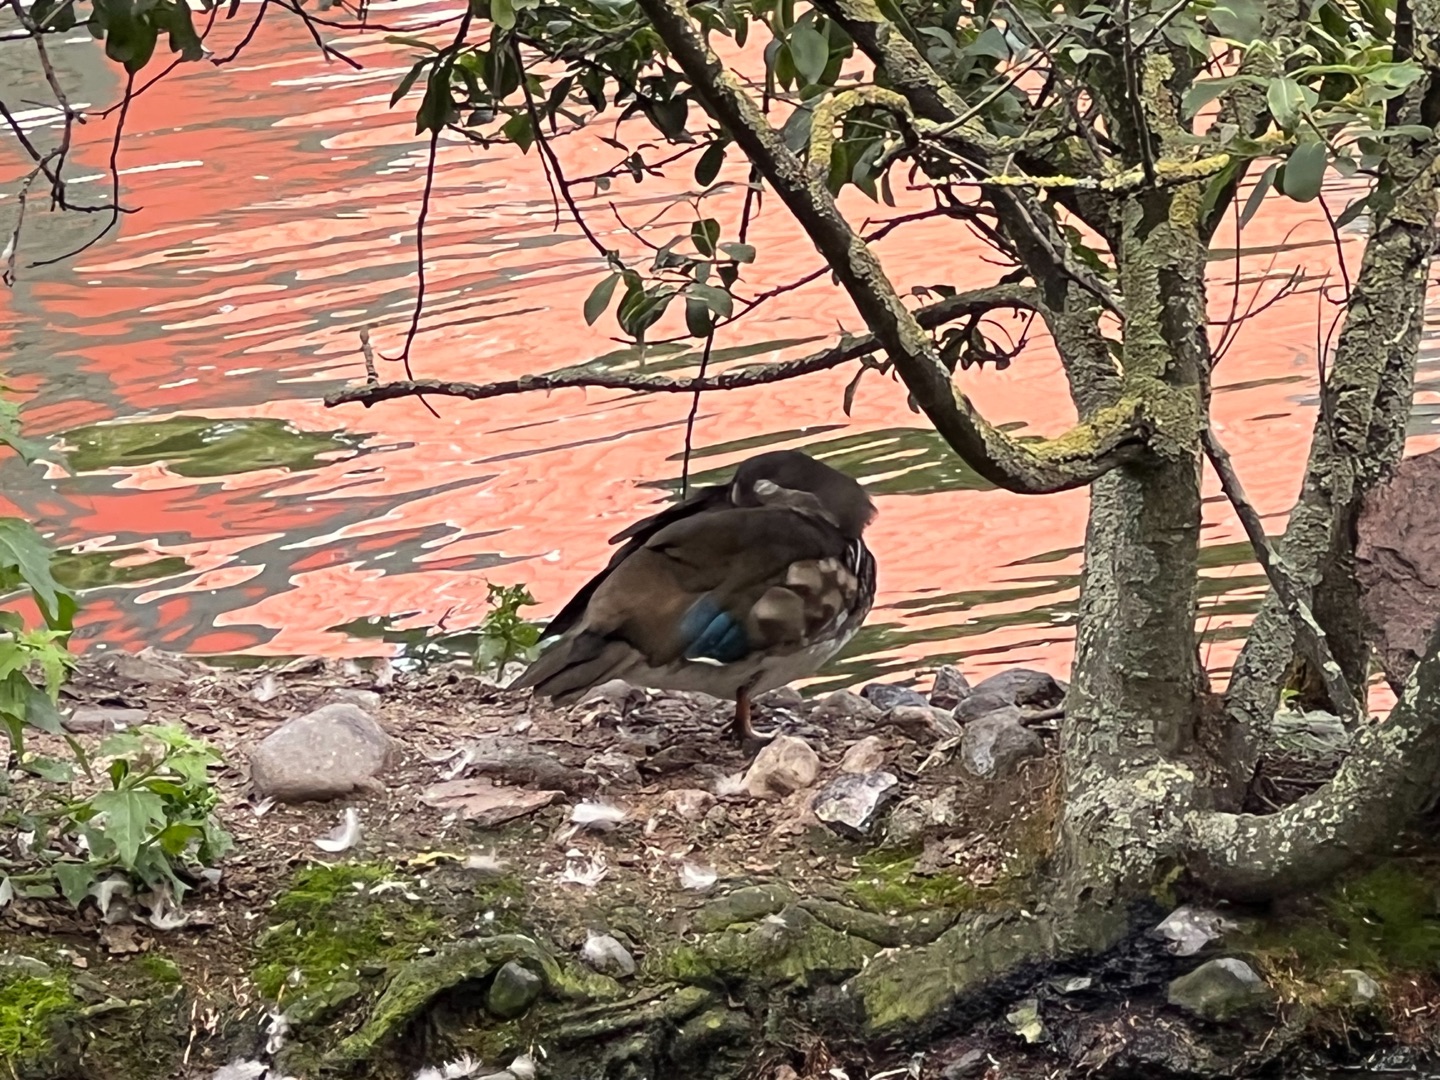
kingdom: Animalia
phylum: Chordata
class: Aves
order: Anseriformes
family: Anatidae
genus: Aix
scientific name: Aix galericulata
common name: Mandarinand
